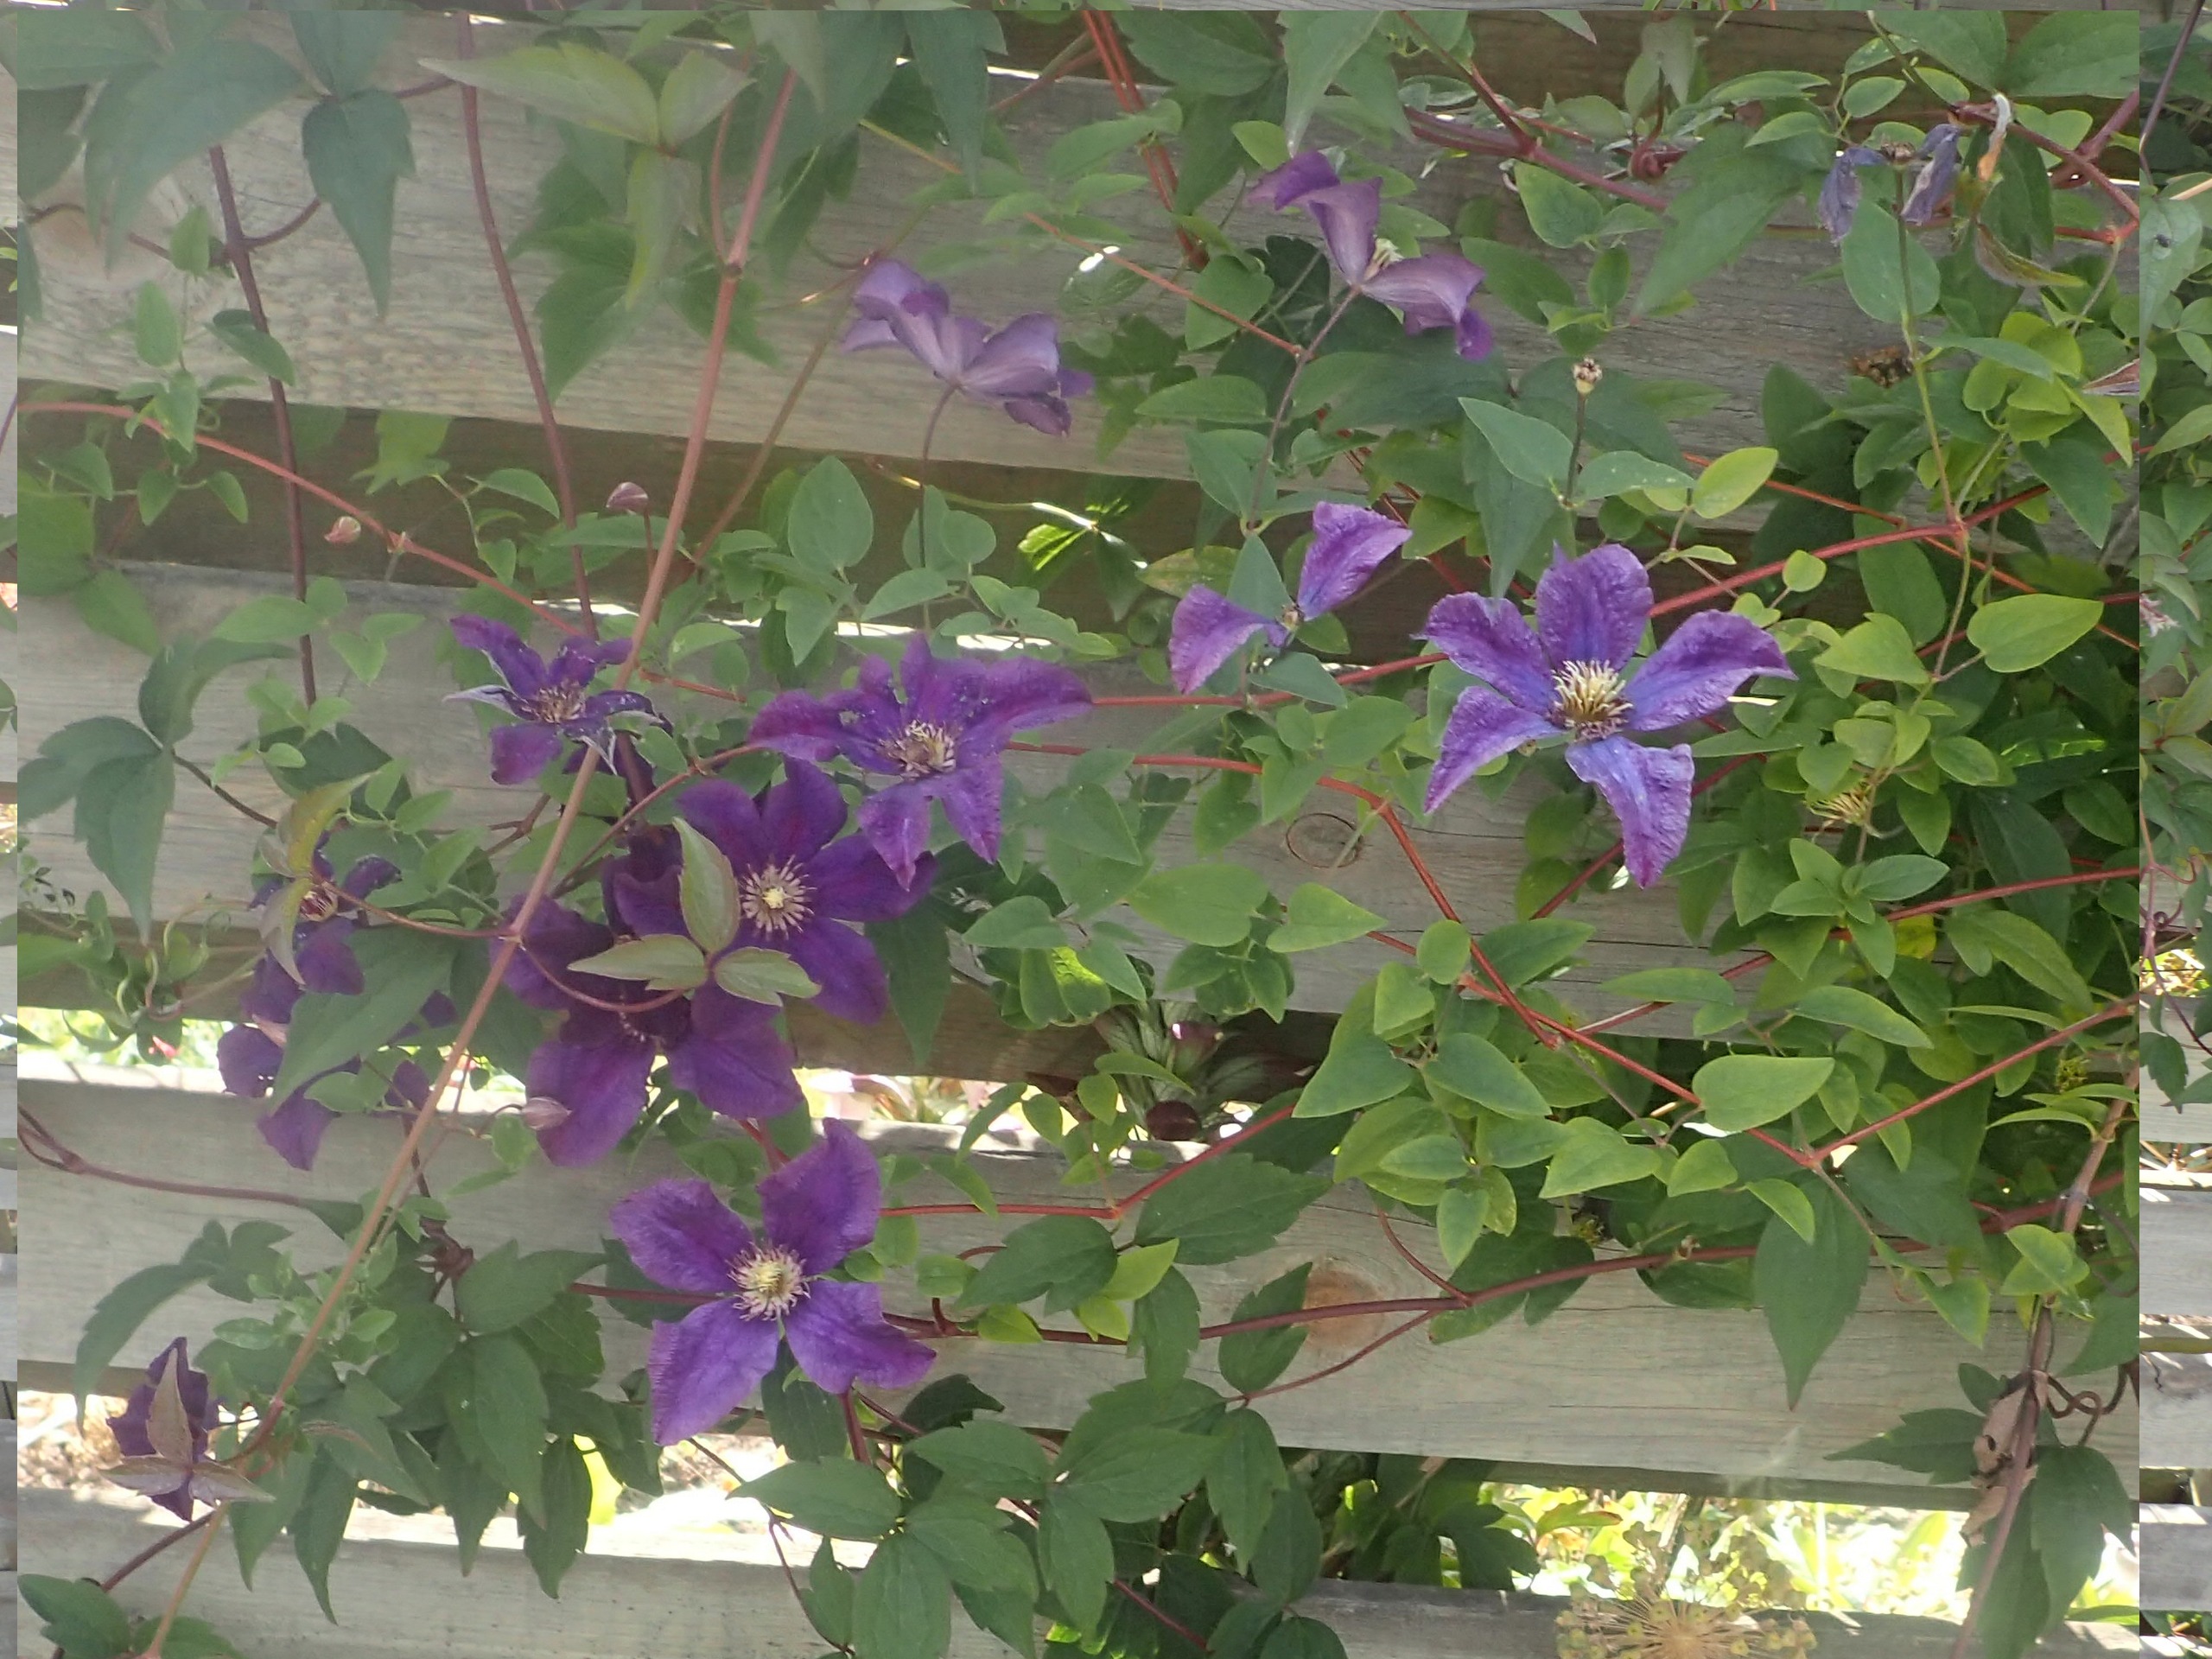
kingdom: Plantae
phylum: Tracheophyta
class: Magnoliopsida
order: Ranunculales
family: Ranunculaceae
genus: Clematis
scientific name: Clematis
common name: Skovrankeslægten
